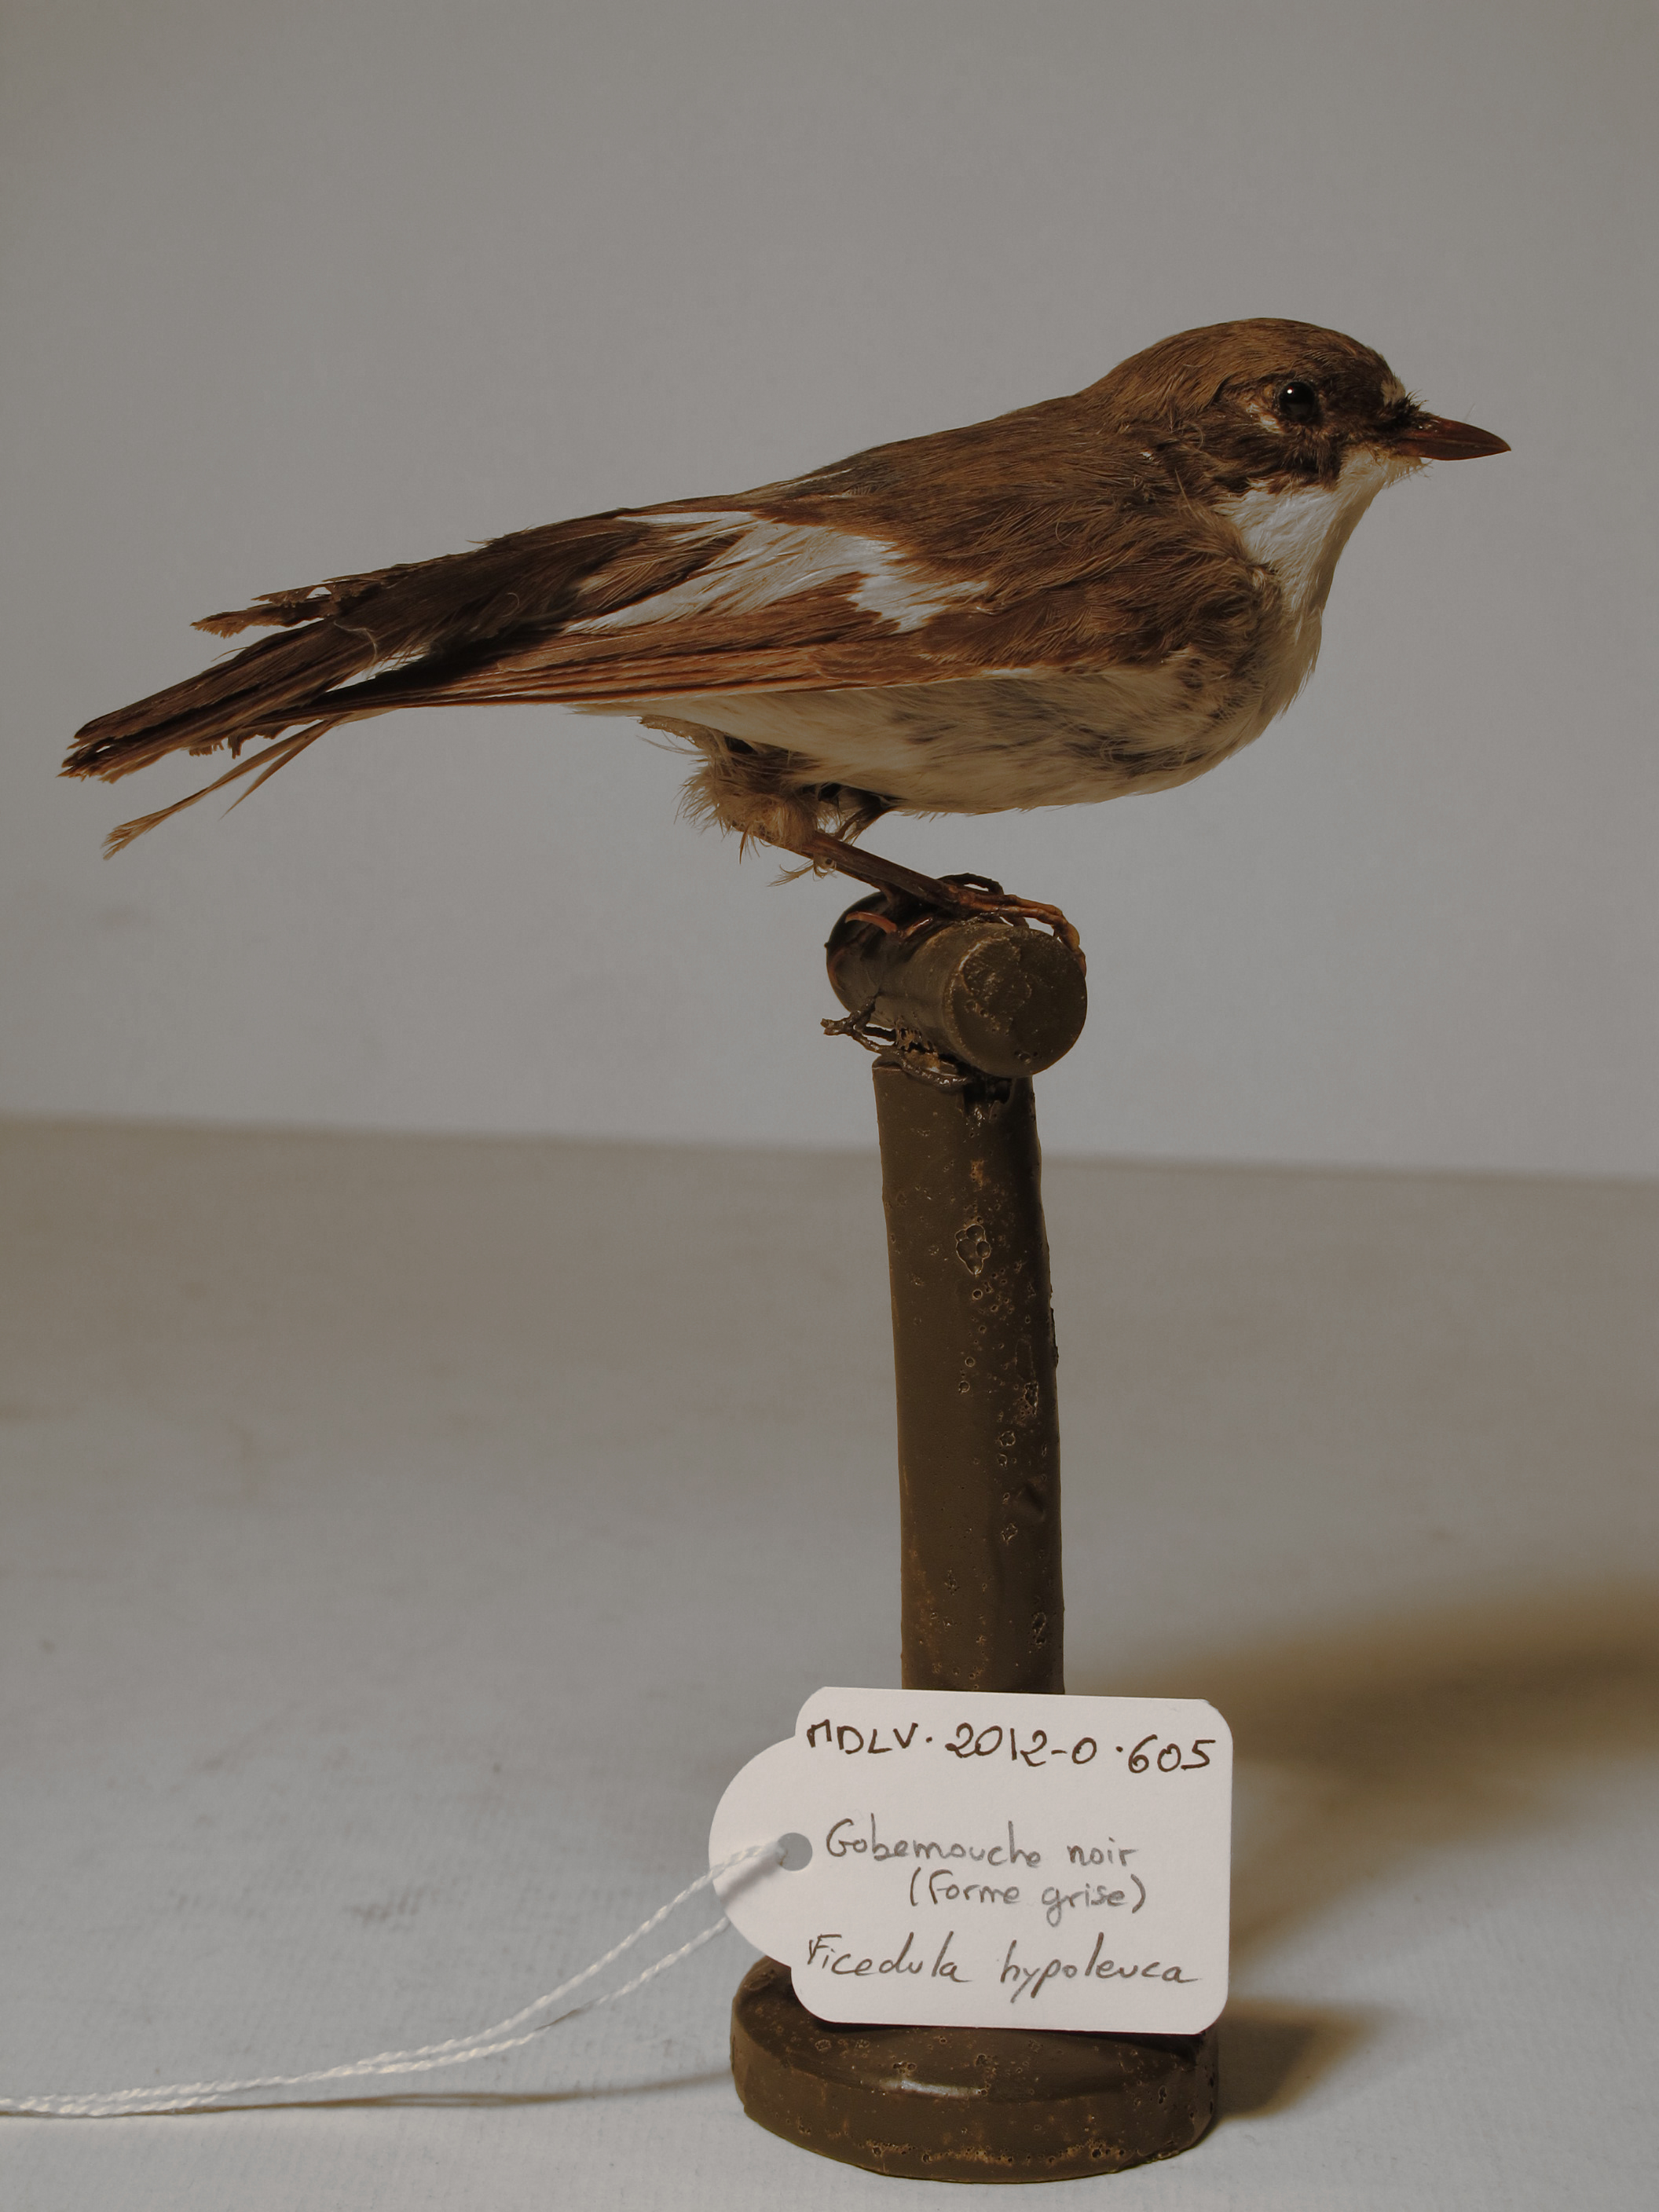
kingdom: Animalia
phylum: Chordata
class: Aves
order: Passeriformes
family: Muscicapidae
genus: Ficedula
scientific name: Ficedula hypoleuca
